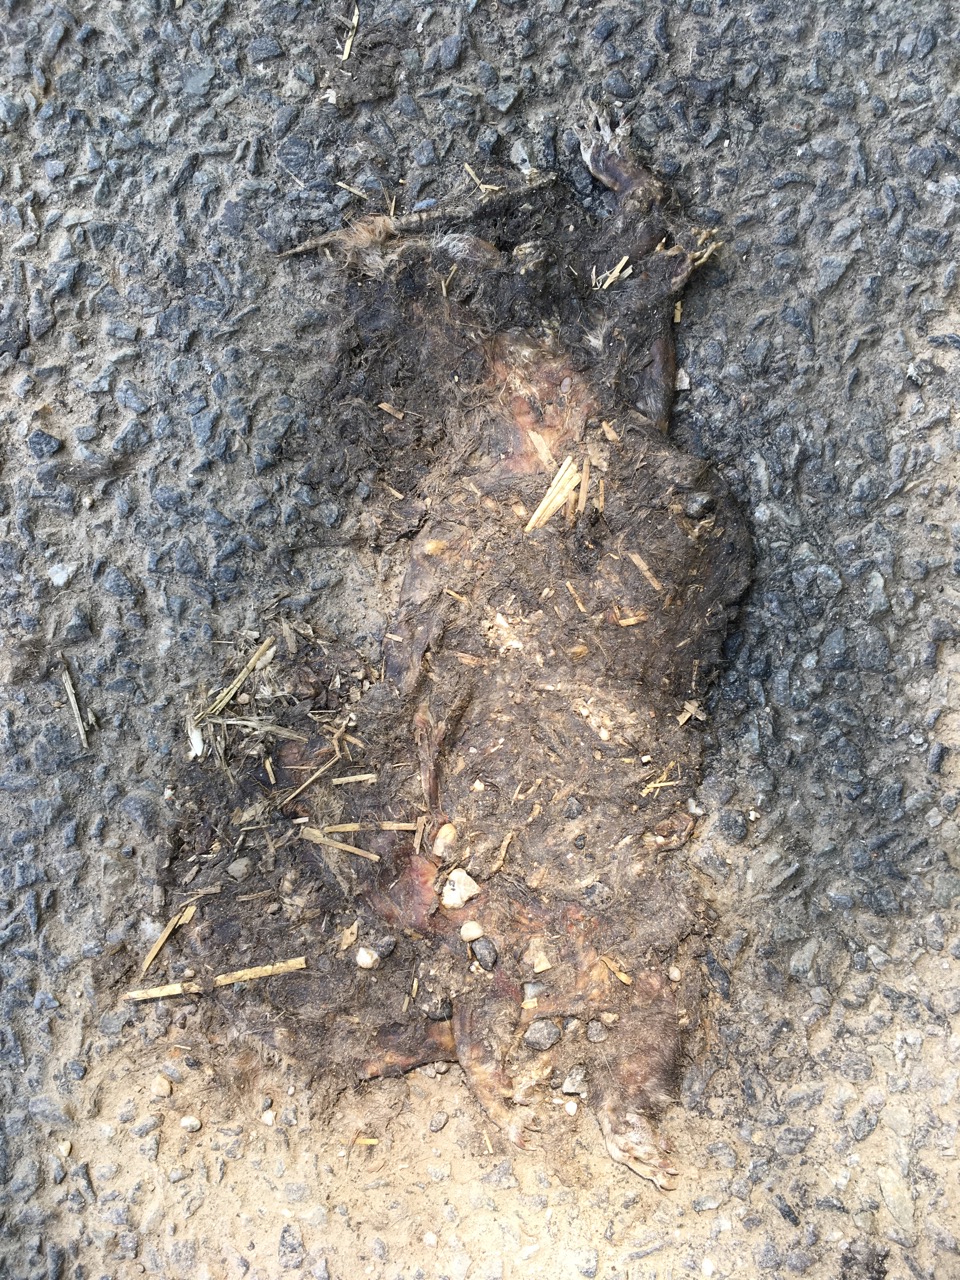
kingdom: Animalia
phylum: Chordata
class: Mammalia
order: Rodentia
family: Sciuridae
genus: Sciurus
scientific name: Sciurus vulgaris
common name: Eurasian red squirrel
